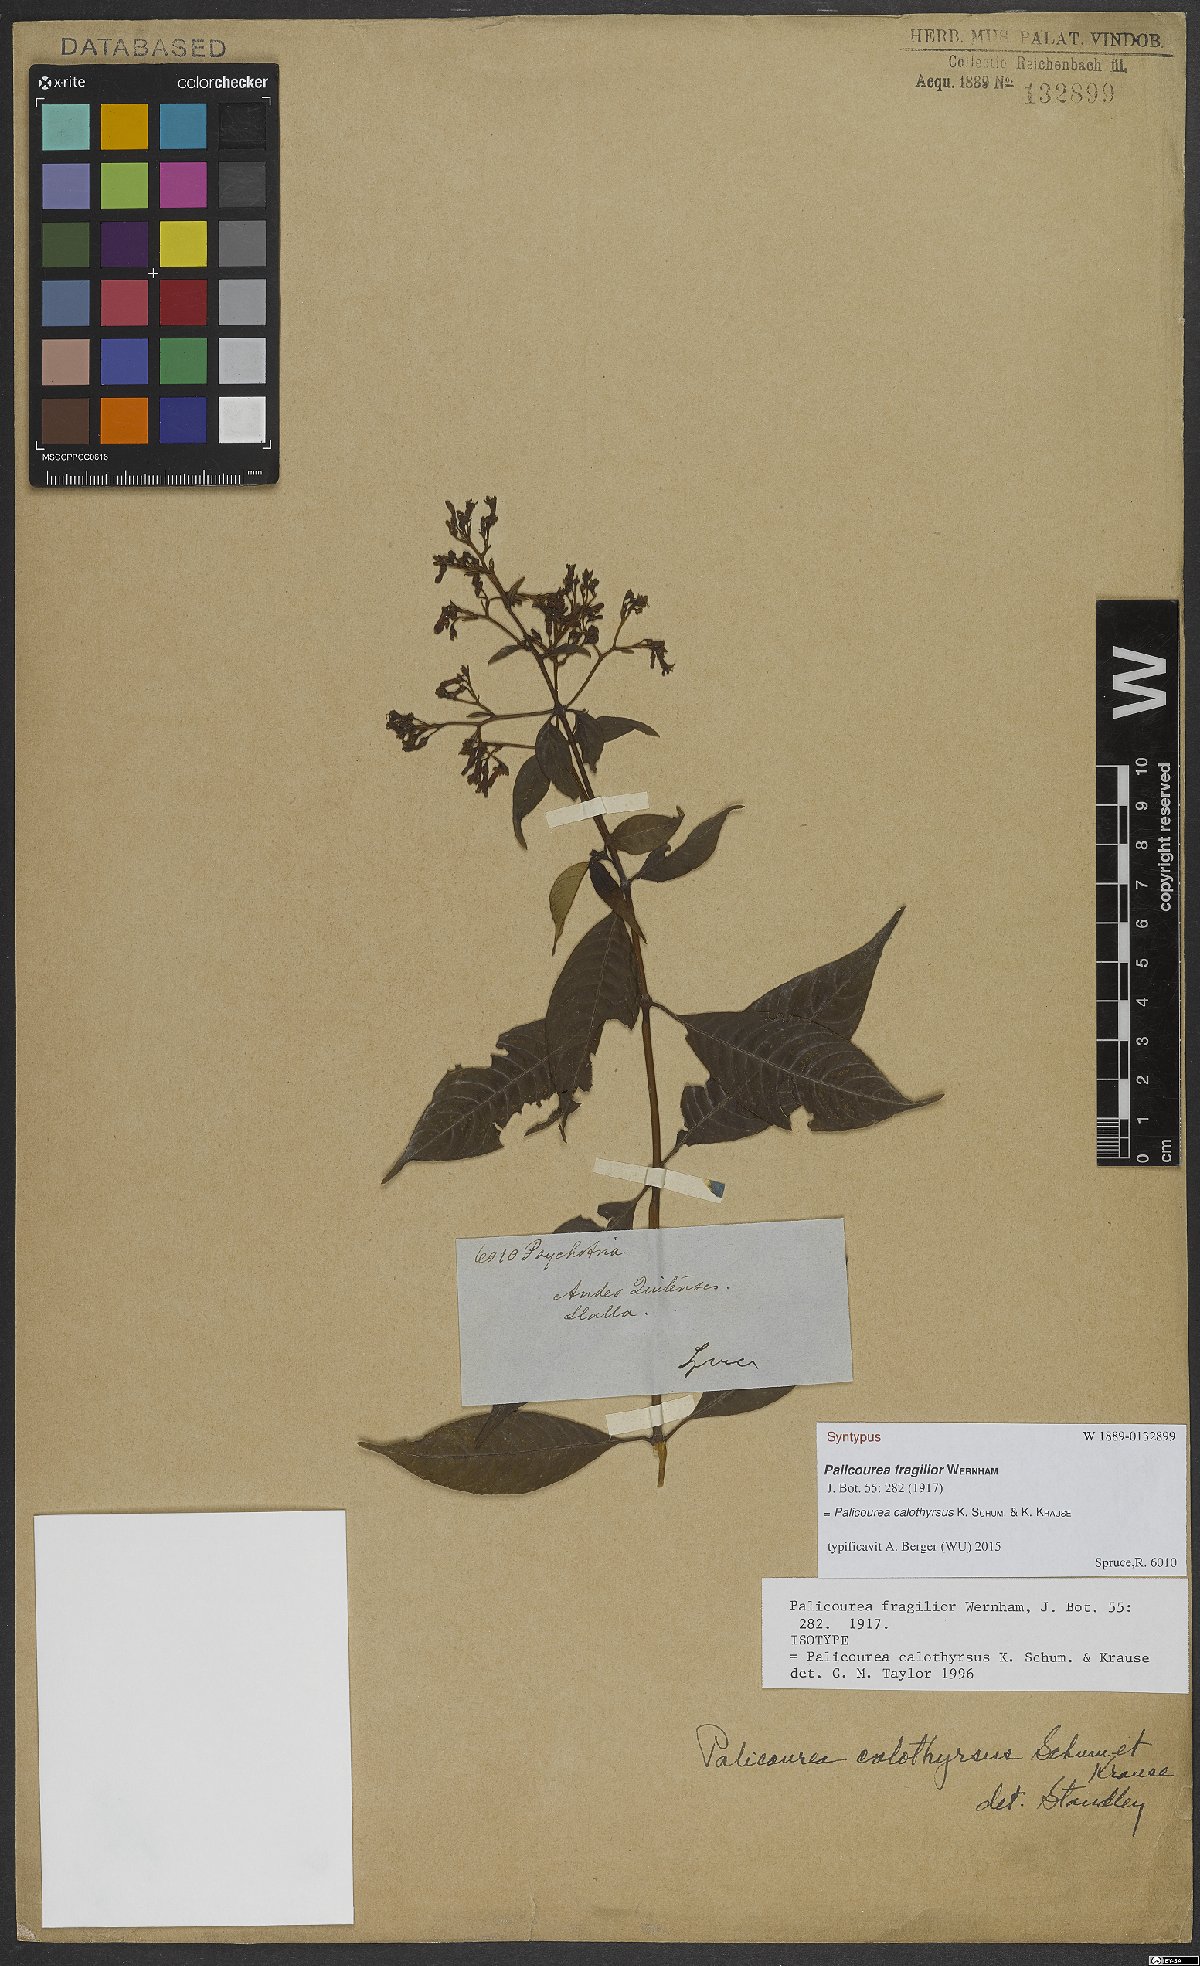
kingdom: Plantae
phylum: Tracheophyta
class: Magnoliopsida
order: Gentianales
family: Rubiaceae
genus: Palicourea
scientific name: Palicourea calothyrsus
